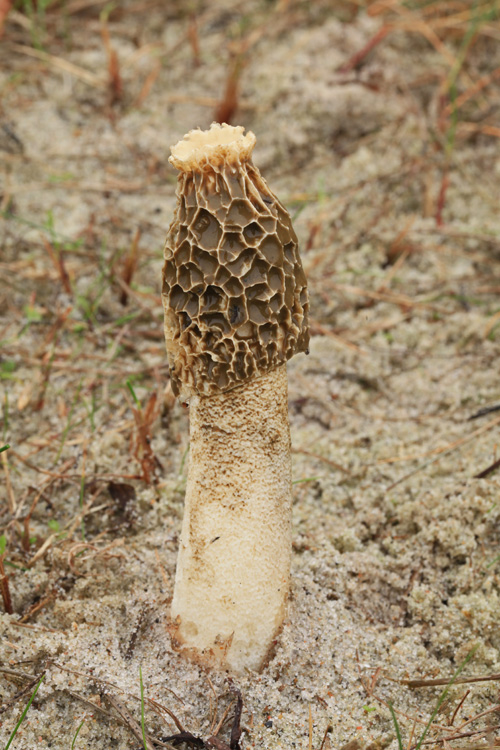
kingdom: Fungi
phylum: Basidiomycota
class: Agaricomycetes
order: Phallales
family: Phallaceae
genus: Phallus
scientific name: Phallus hadriani
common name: sand-stinksvamp
